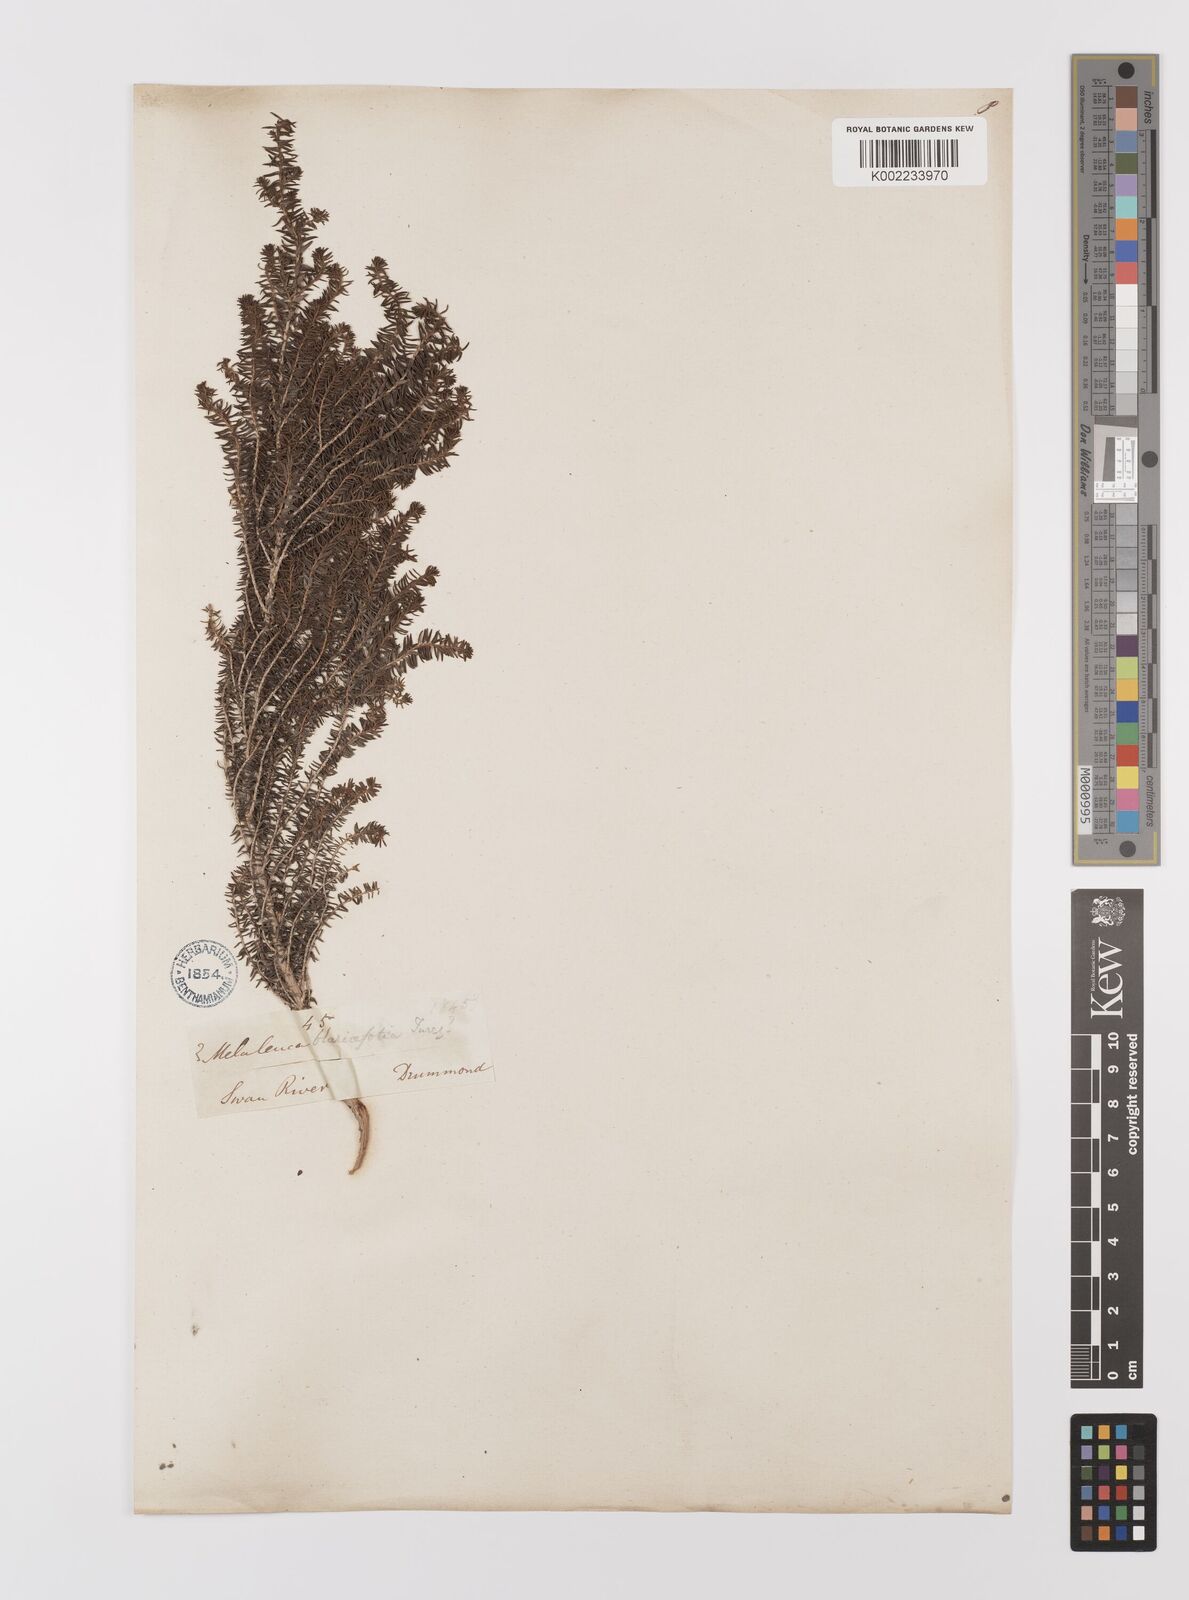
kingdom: Plantae
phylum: Tracheophyta
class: Magnoliopsida
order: Myrtales
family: Myrtaceae
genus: Melaleuca
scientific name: Melaleuca blaeriifolia
